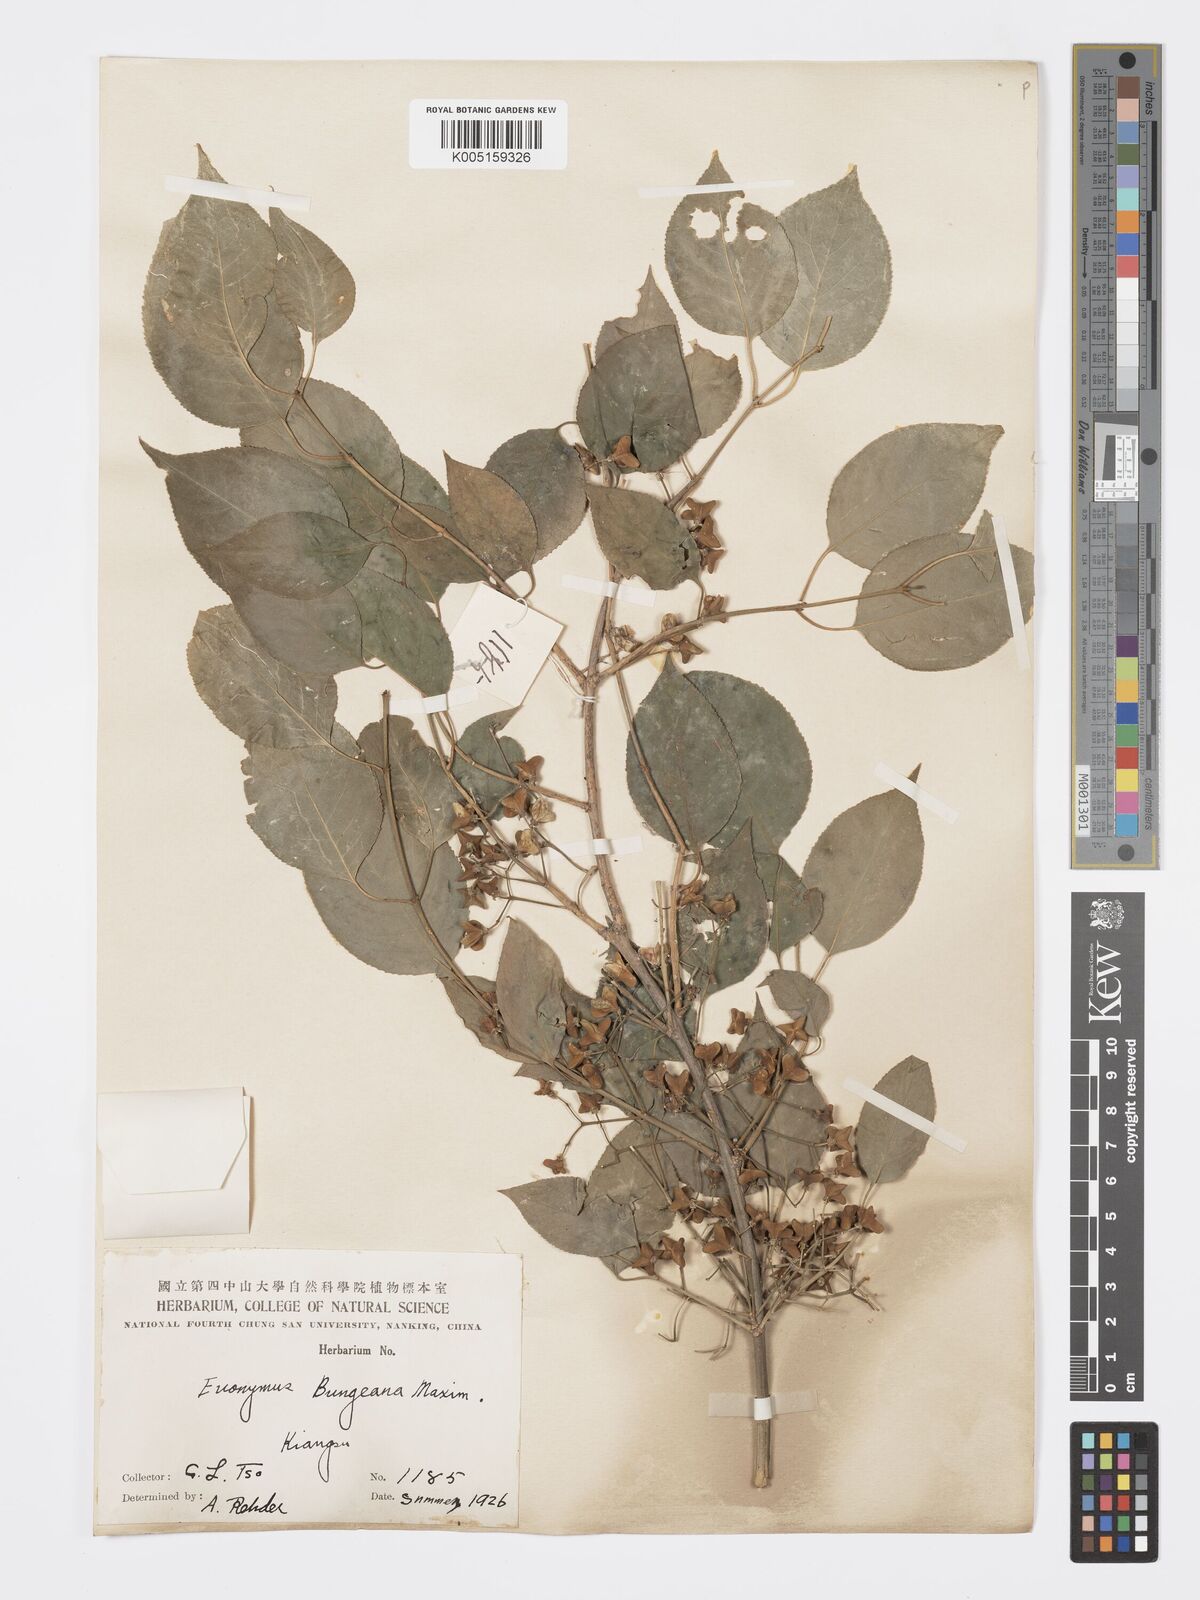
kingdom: Plantae
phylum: Tracheophyta
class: Magnoliopsida
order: Celastrales
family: Celastraceae
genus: Euonymus
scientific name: Euonymus maackii
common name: Hamilton's spindletree
